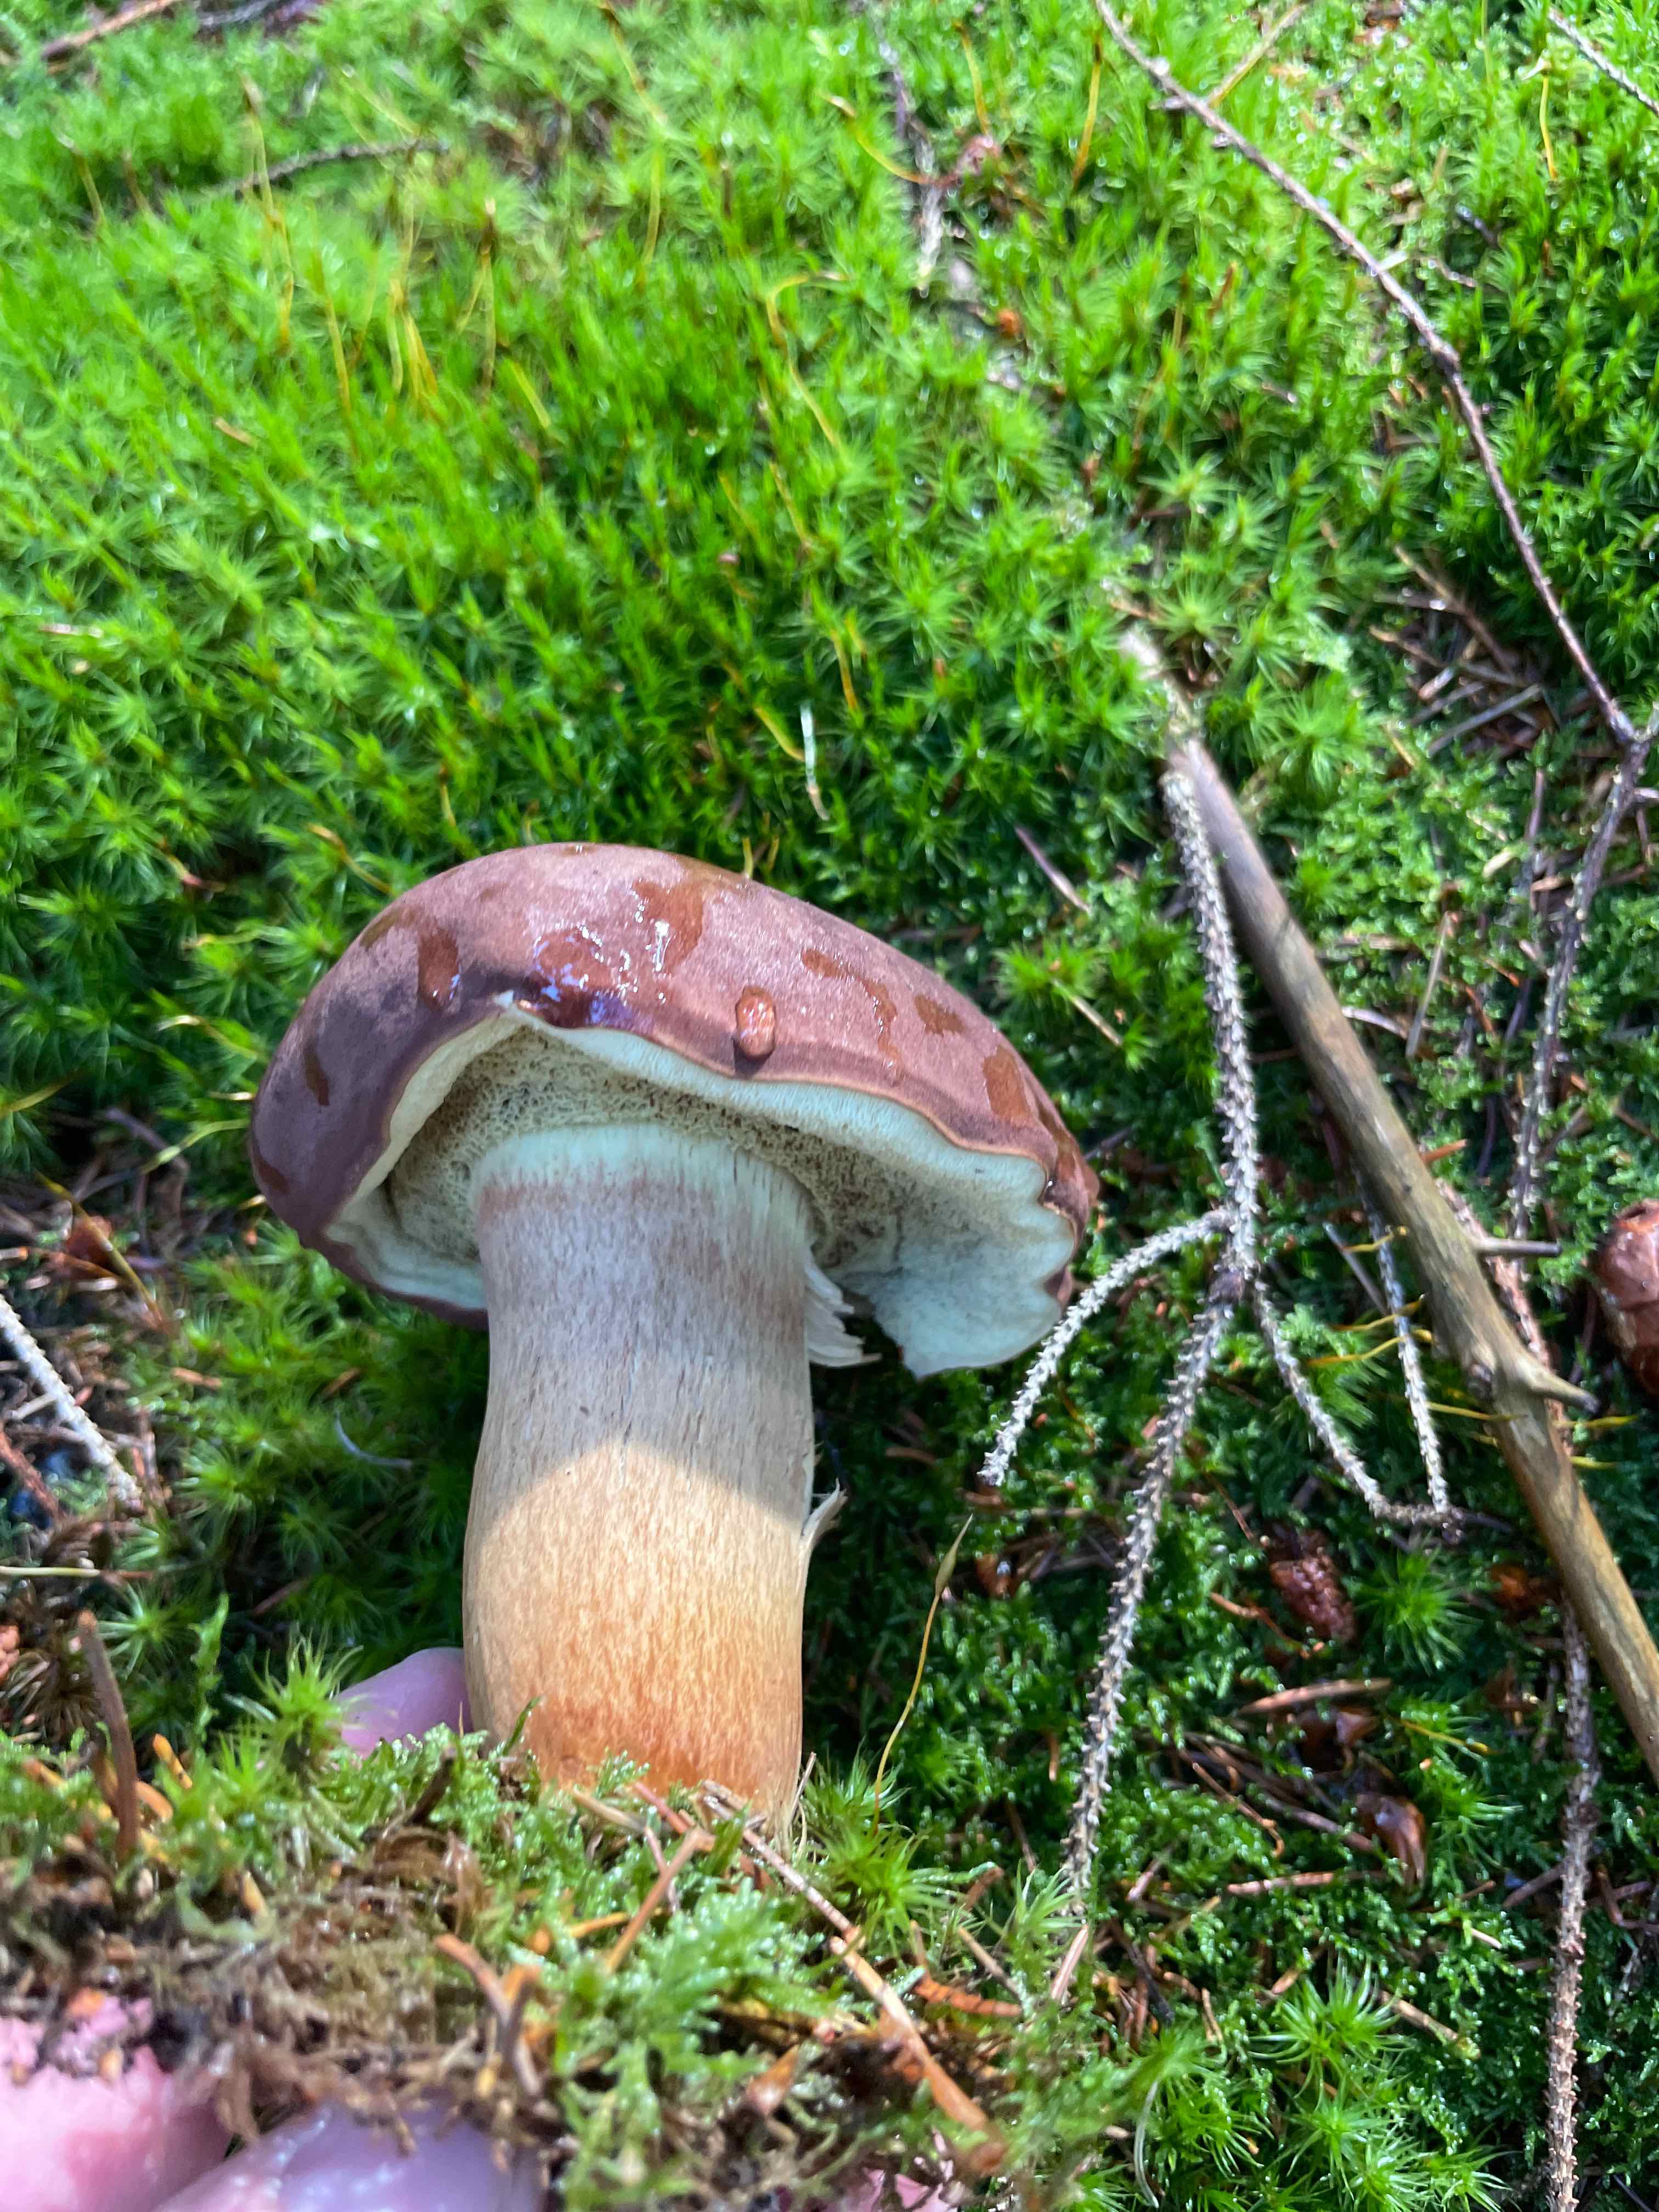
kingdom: Fungi
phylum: Basidiomycota
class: Agaricomycetes
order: Boletales
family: Boletaceae
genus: Imleria
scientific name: Imleria badia
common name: brunstokket rørhat
